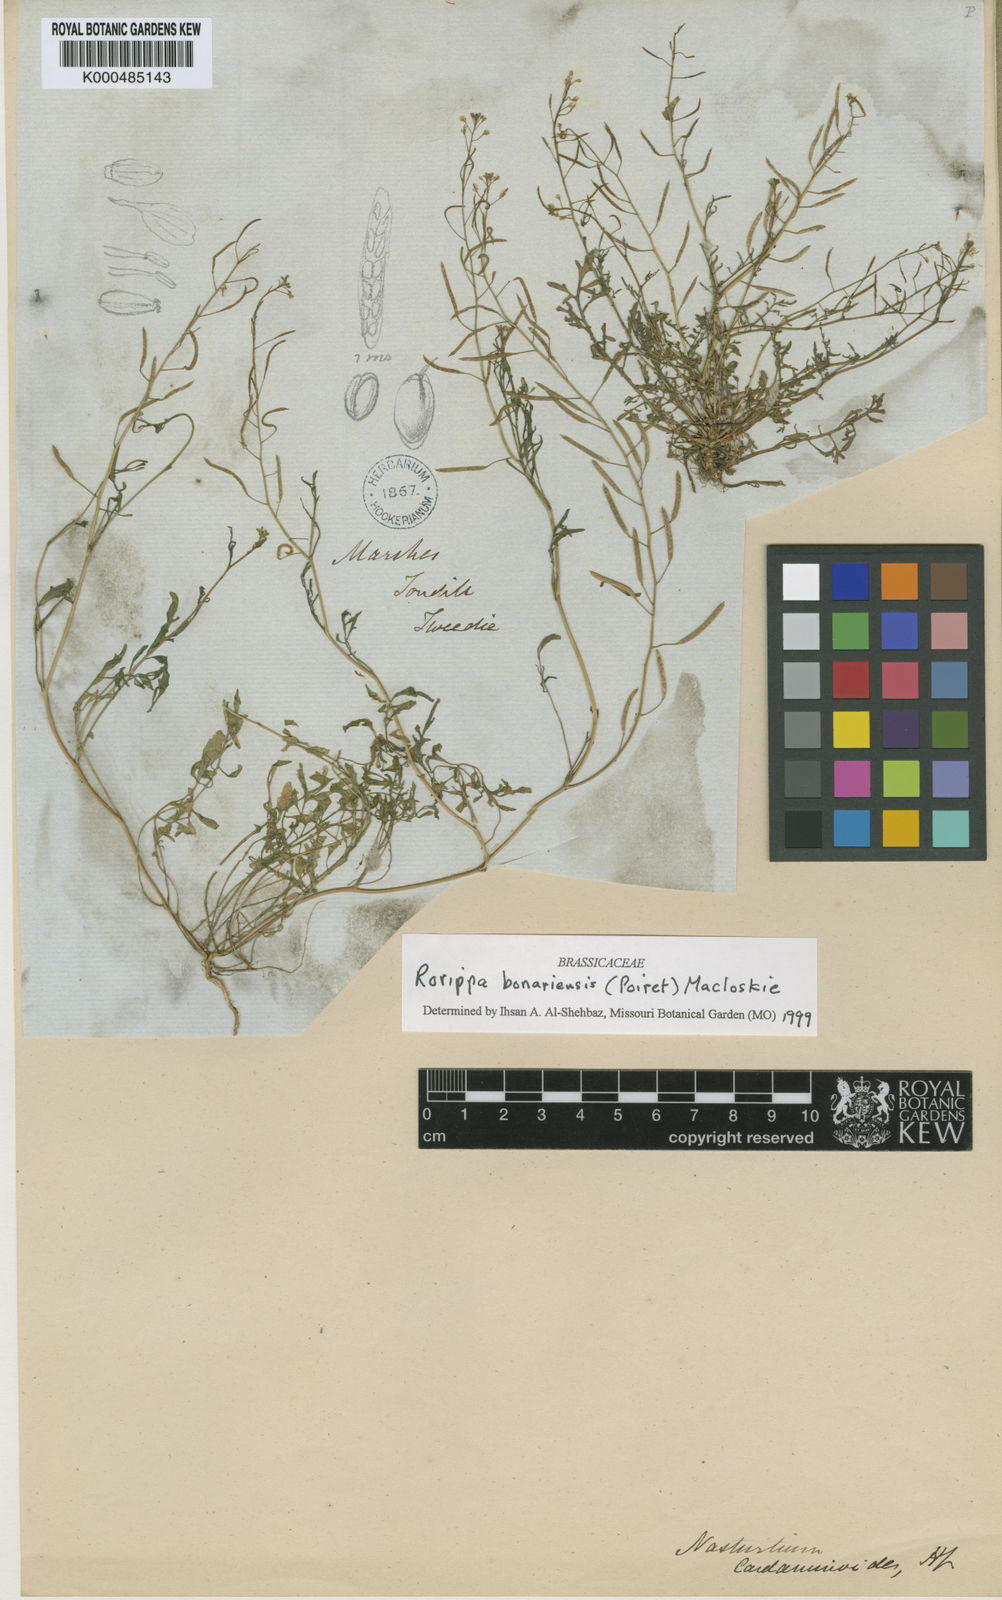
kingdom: Plantae
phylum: Tracheophyta
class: Magnoliopsida
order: Brassicales
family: Brassicaceae
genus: Rorippa
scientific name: Rorippa
